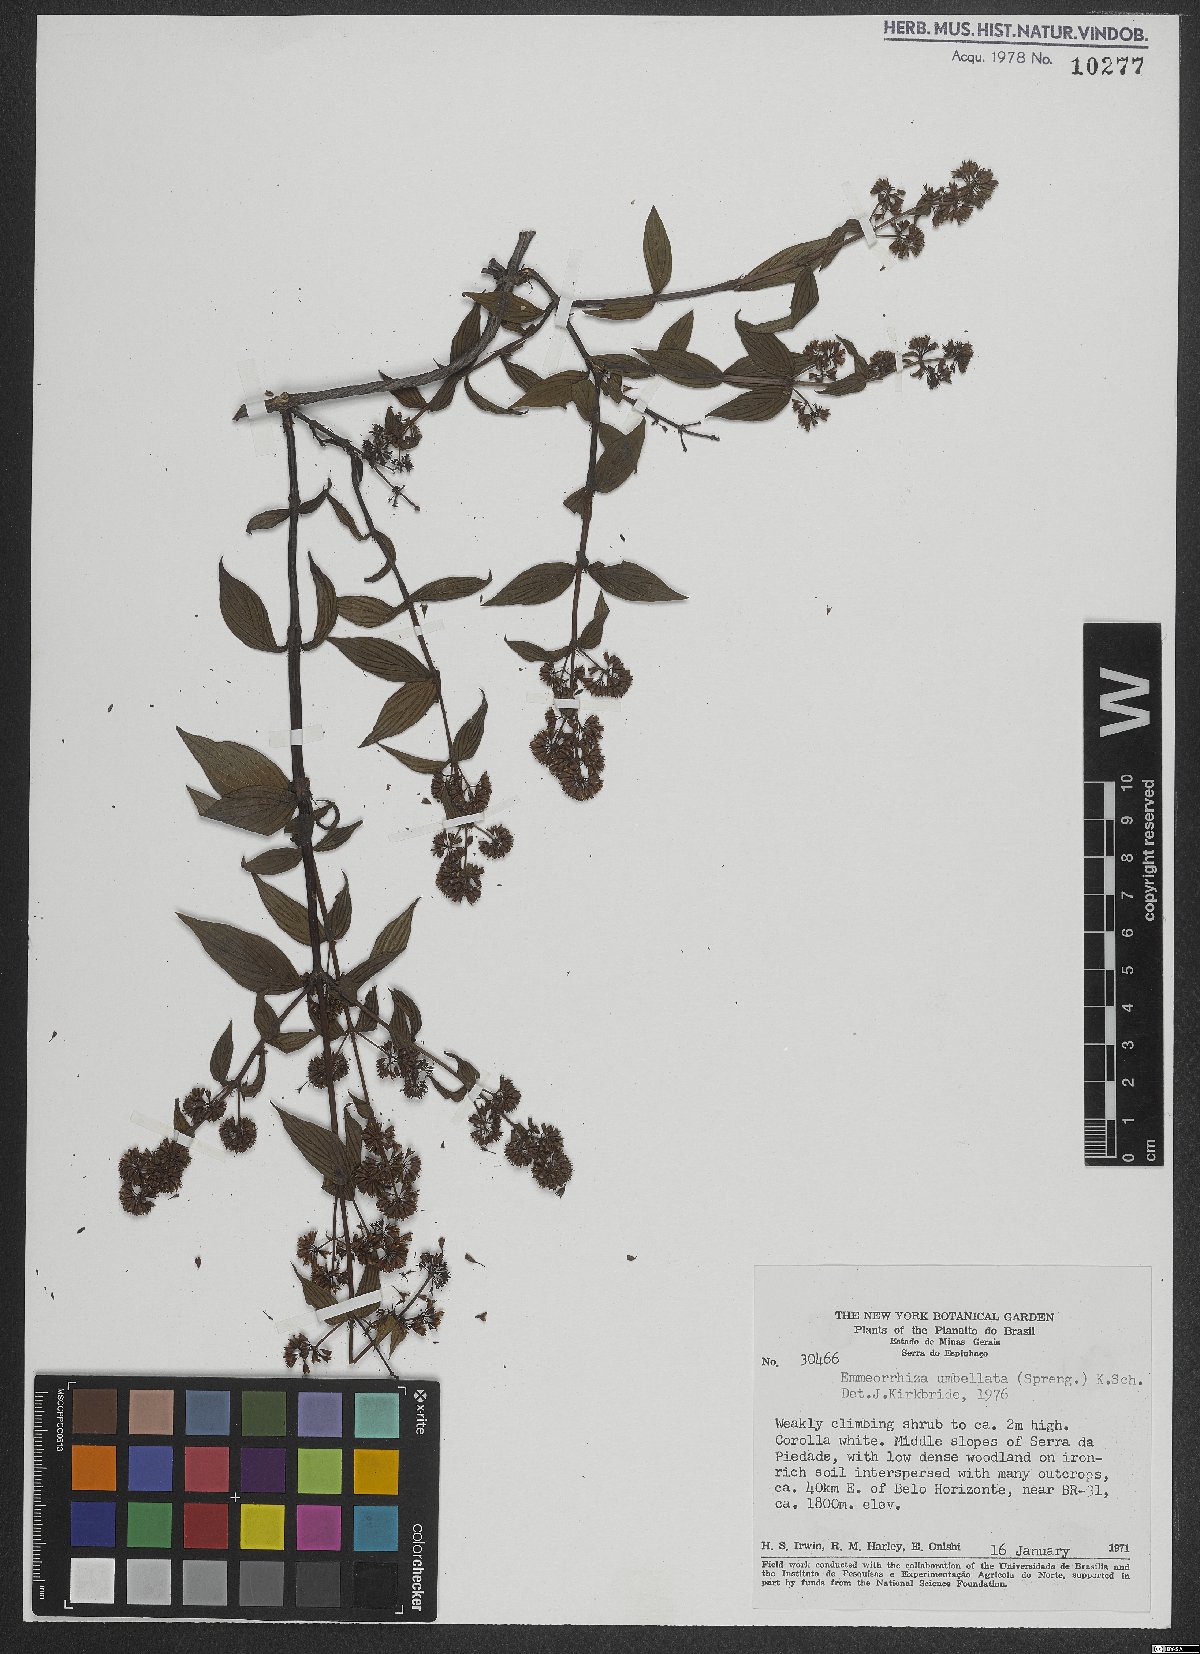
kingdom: Plantae
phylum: Tracheophyta
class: Magnoliopsida
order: Gentianales
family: Rubiaceae
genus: Emmeorhiza
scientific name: Emmeorhiza umbellata
